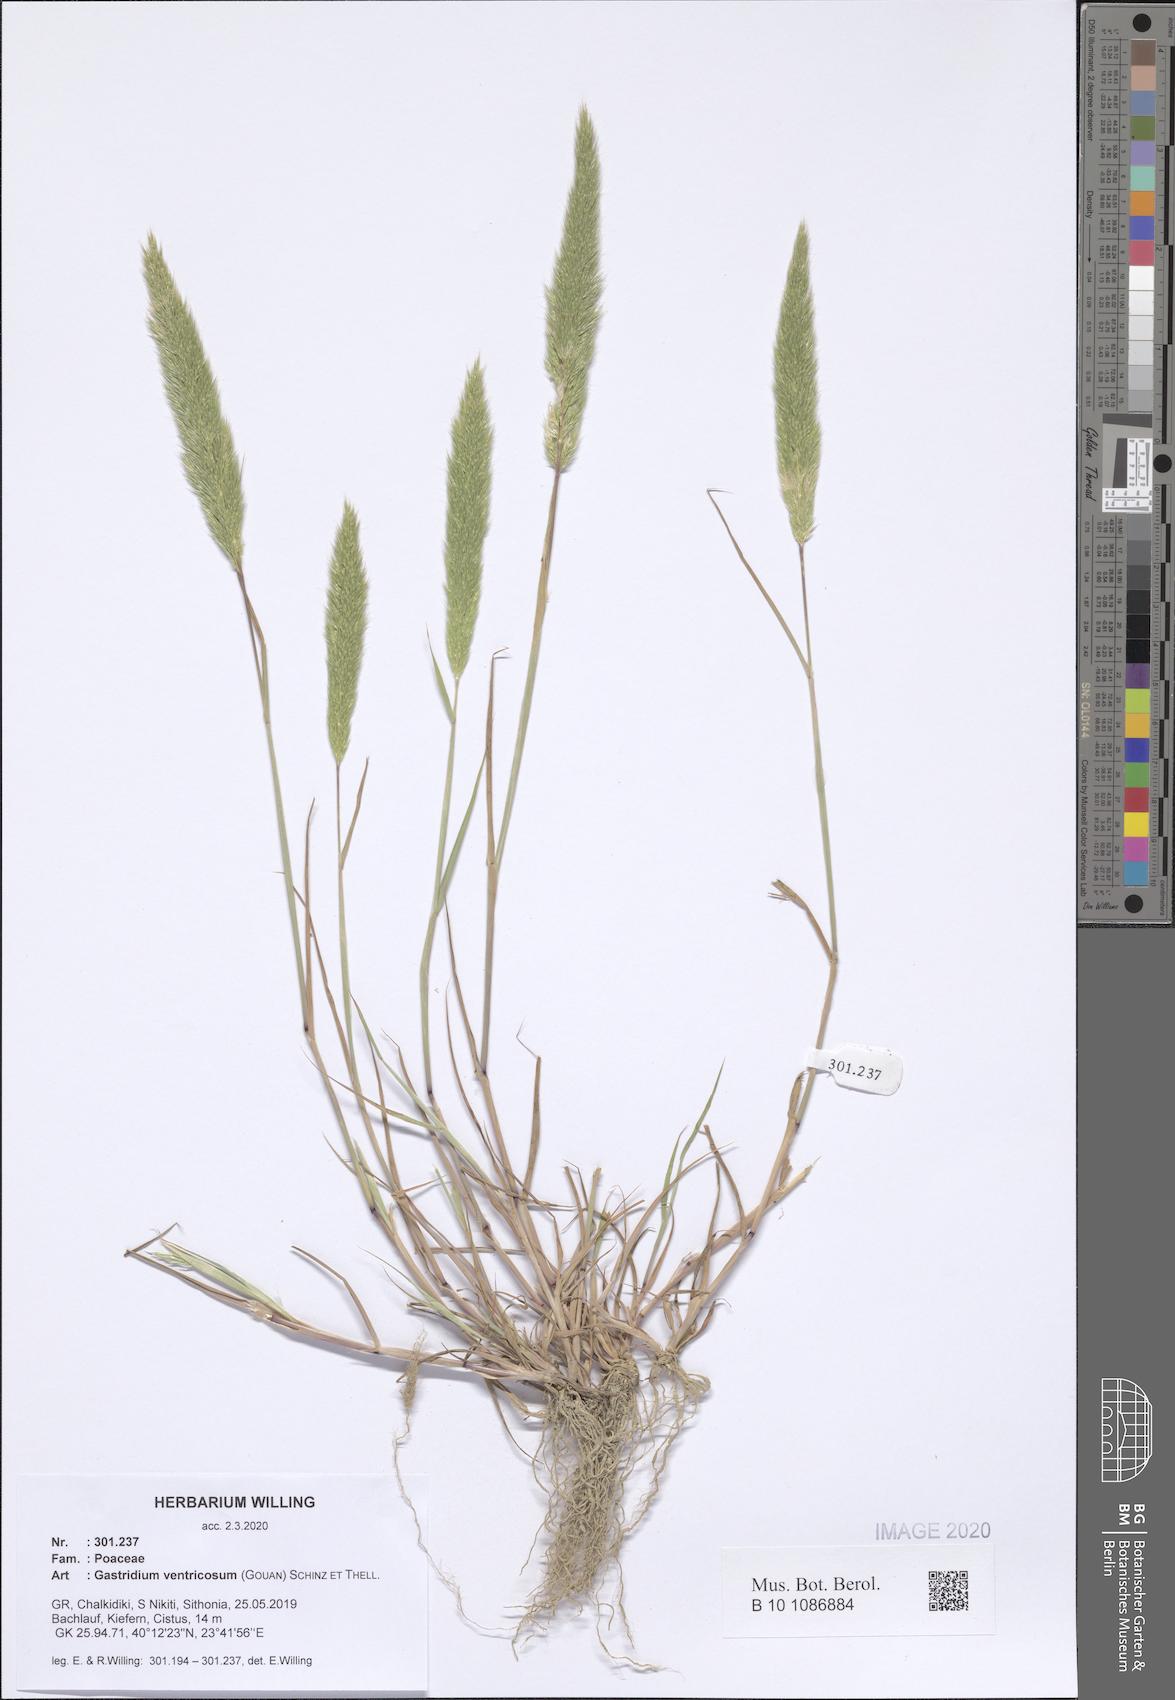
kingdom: Plantae
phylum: Tracheophyta
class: Liliopsida
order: Poales
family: Poaceae
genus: Gastridium
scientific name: Gastridium ventricosum
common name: Nit-grass
